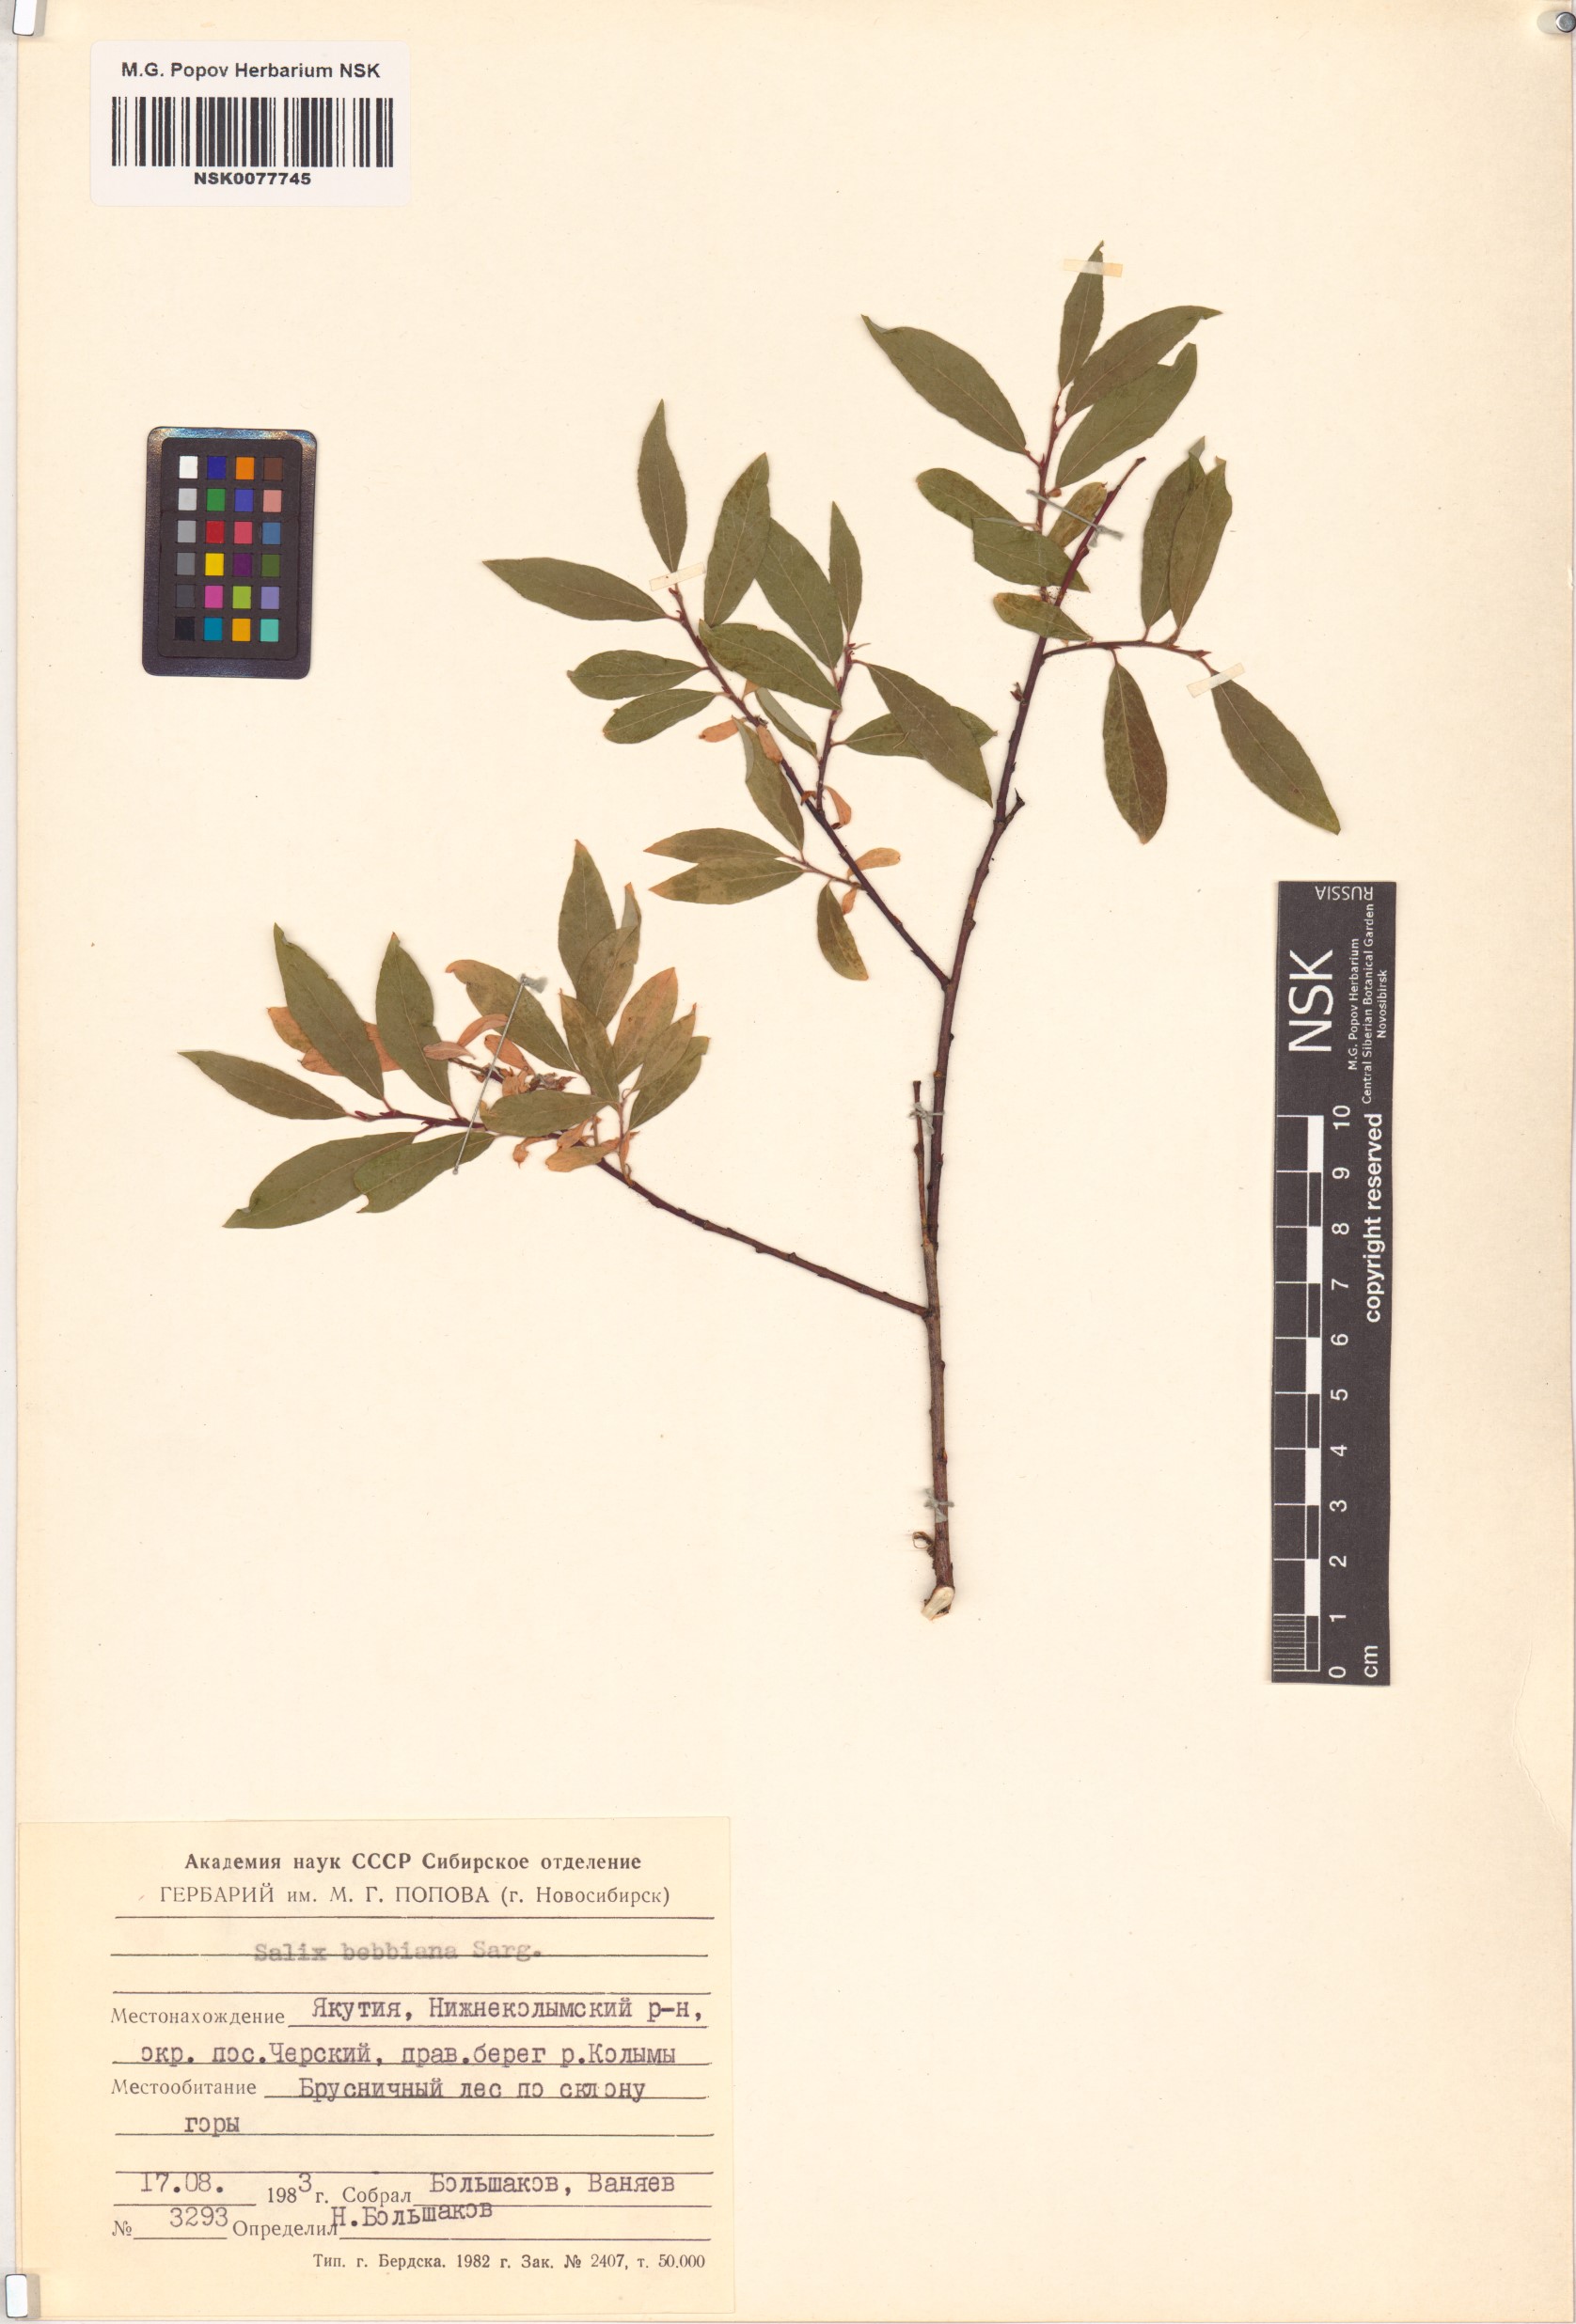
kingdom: Plantae
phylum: Tracheophyta
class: Magnoliopsida
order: Malpighiales
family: Salicaceae
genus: Salix
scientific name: Salix bebbiana
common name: Bebb's willow
